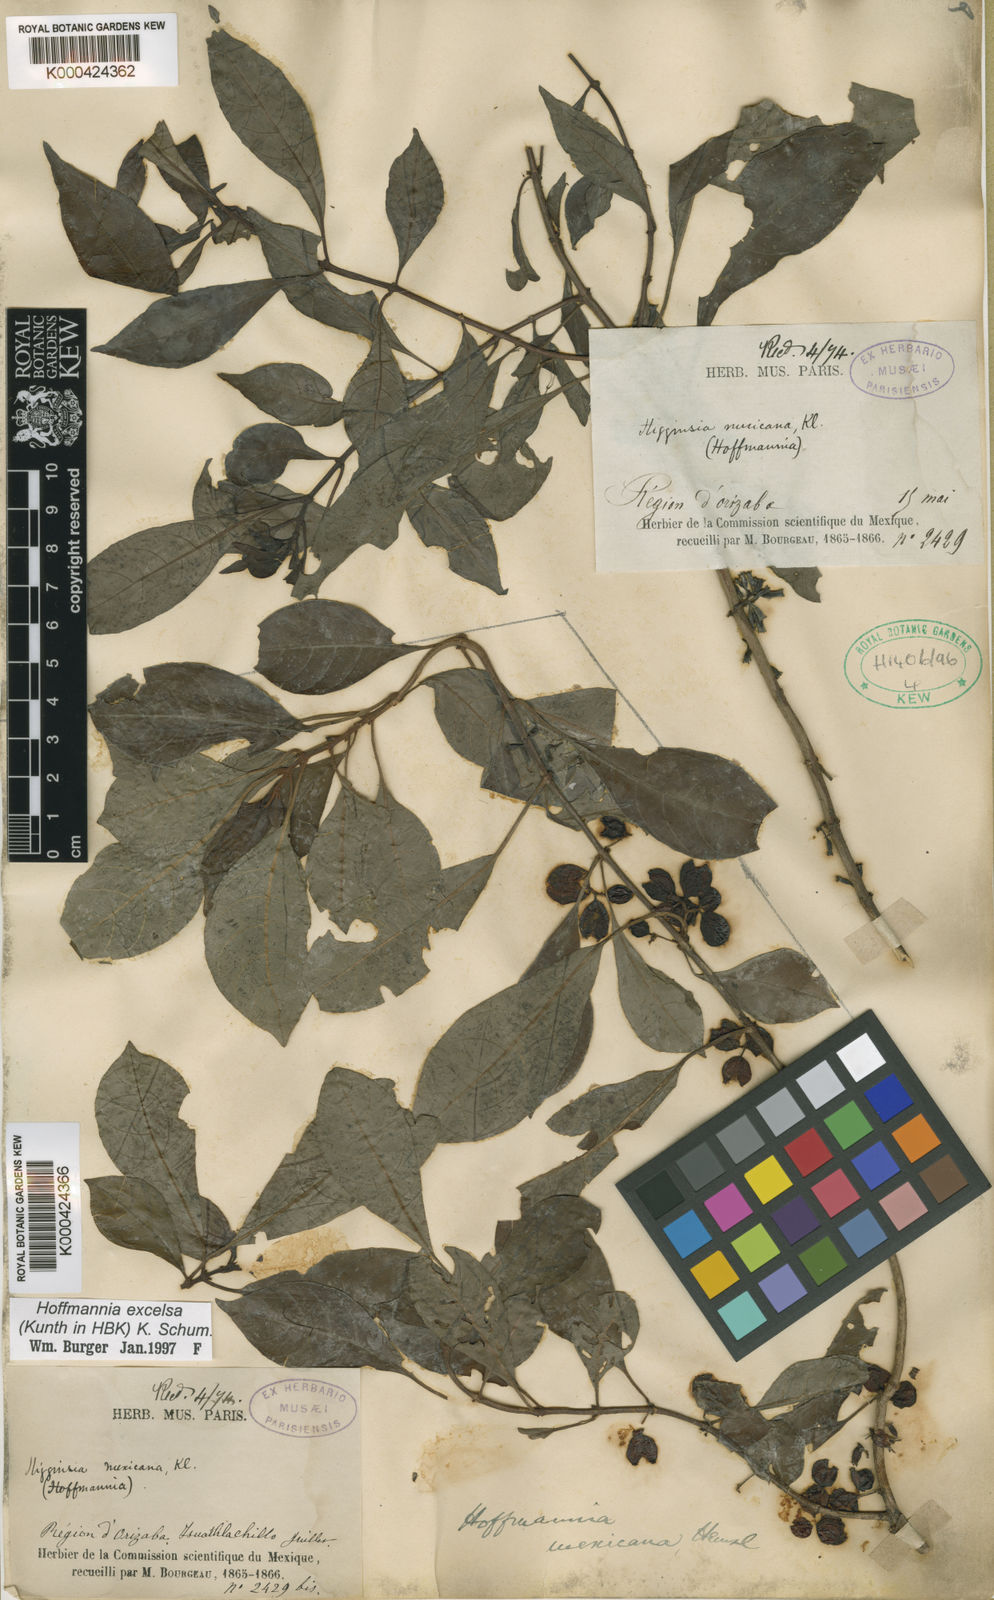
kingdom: Plantae
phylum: Tracheophyta
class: Magnoliopsida
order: Gentianales
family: Rubiaceae
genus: Hoffmannia
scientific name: Hoffmannia excelsa
